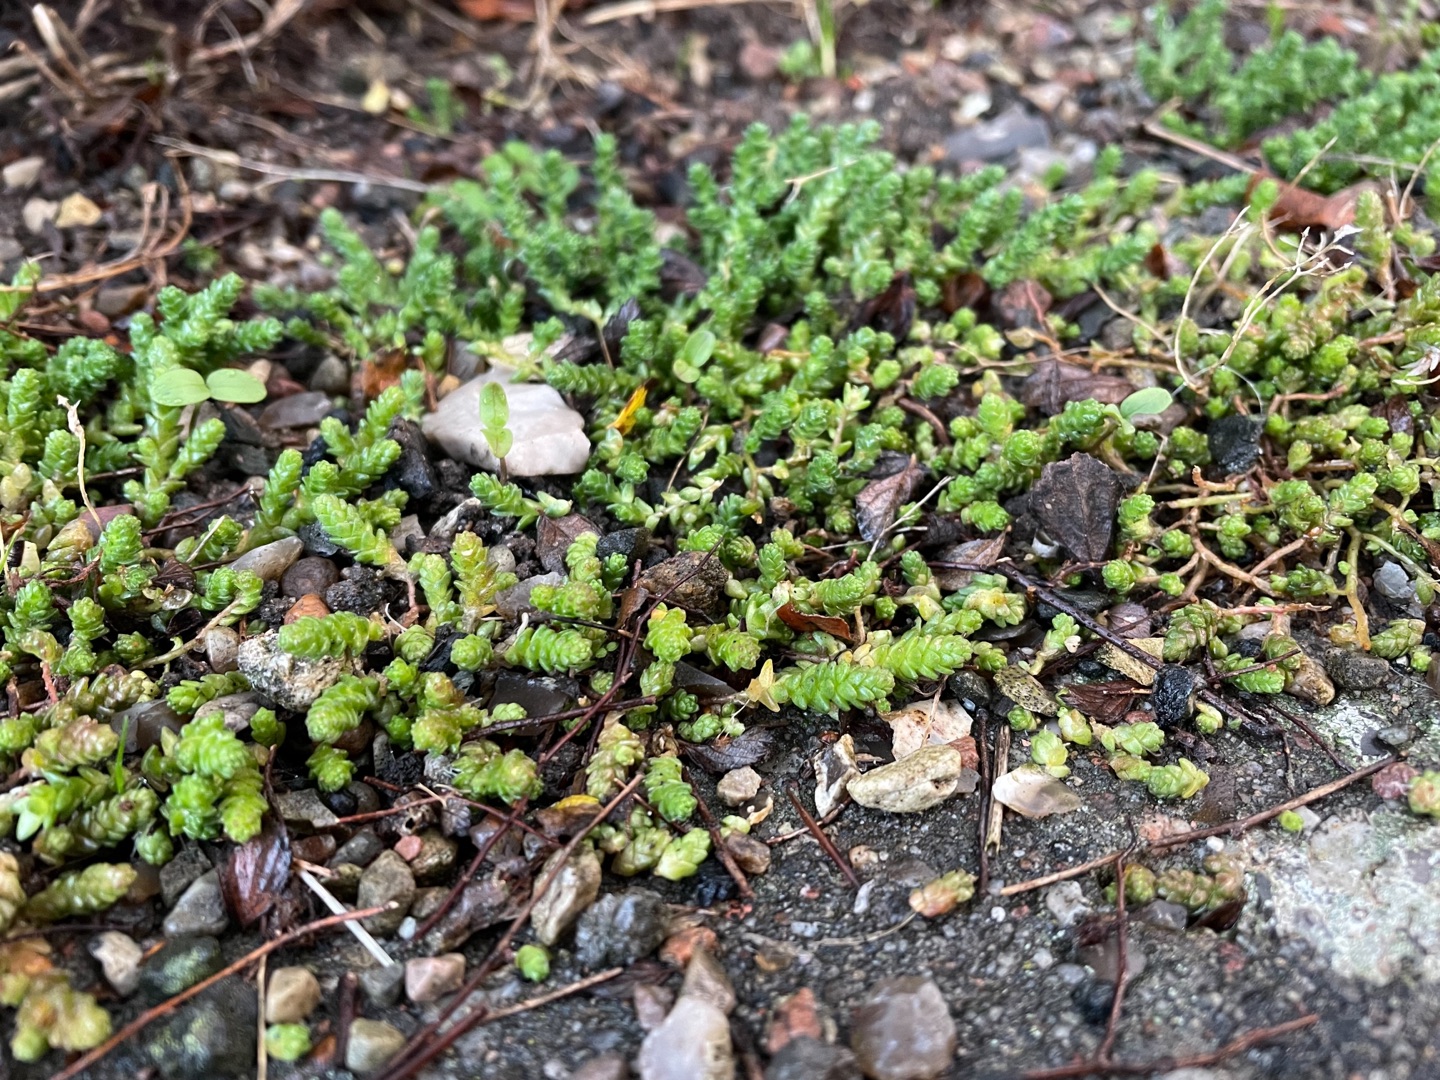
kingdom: Plantae
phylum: Tracheophyta
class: Magnoliopsida
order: Saxifragales
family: Crassulaceae
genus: Sedum
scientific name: Sedum acre
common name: Bidende stenurt
